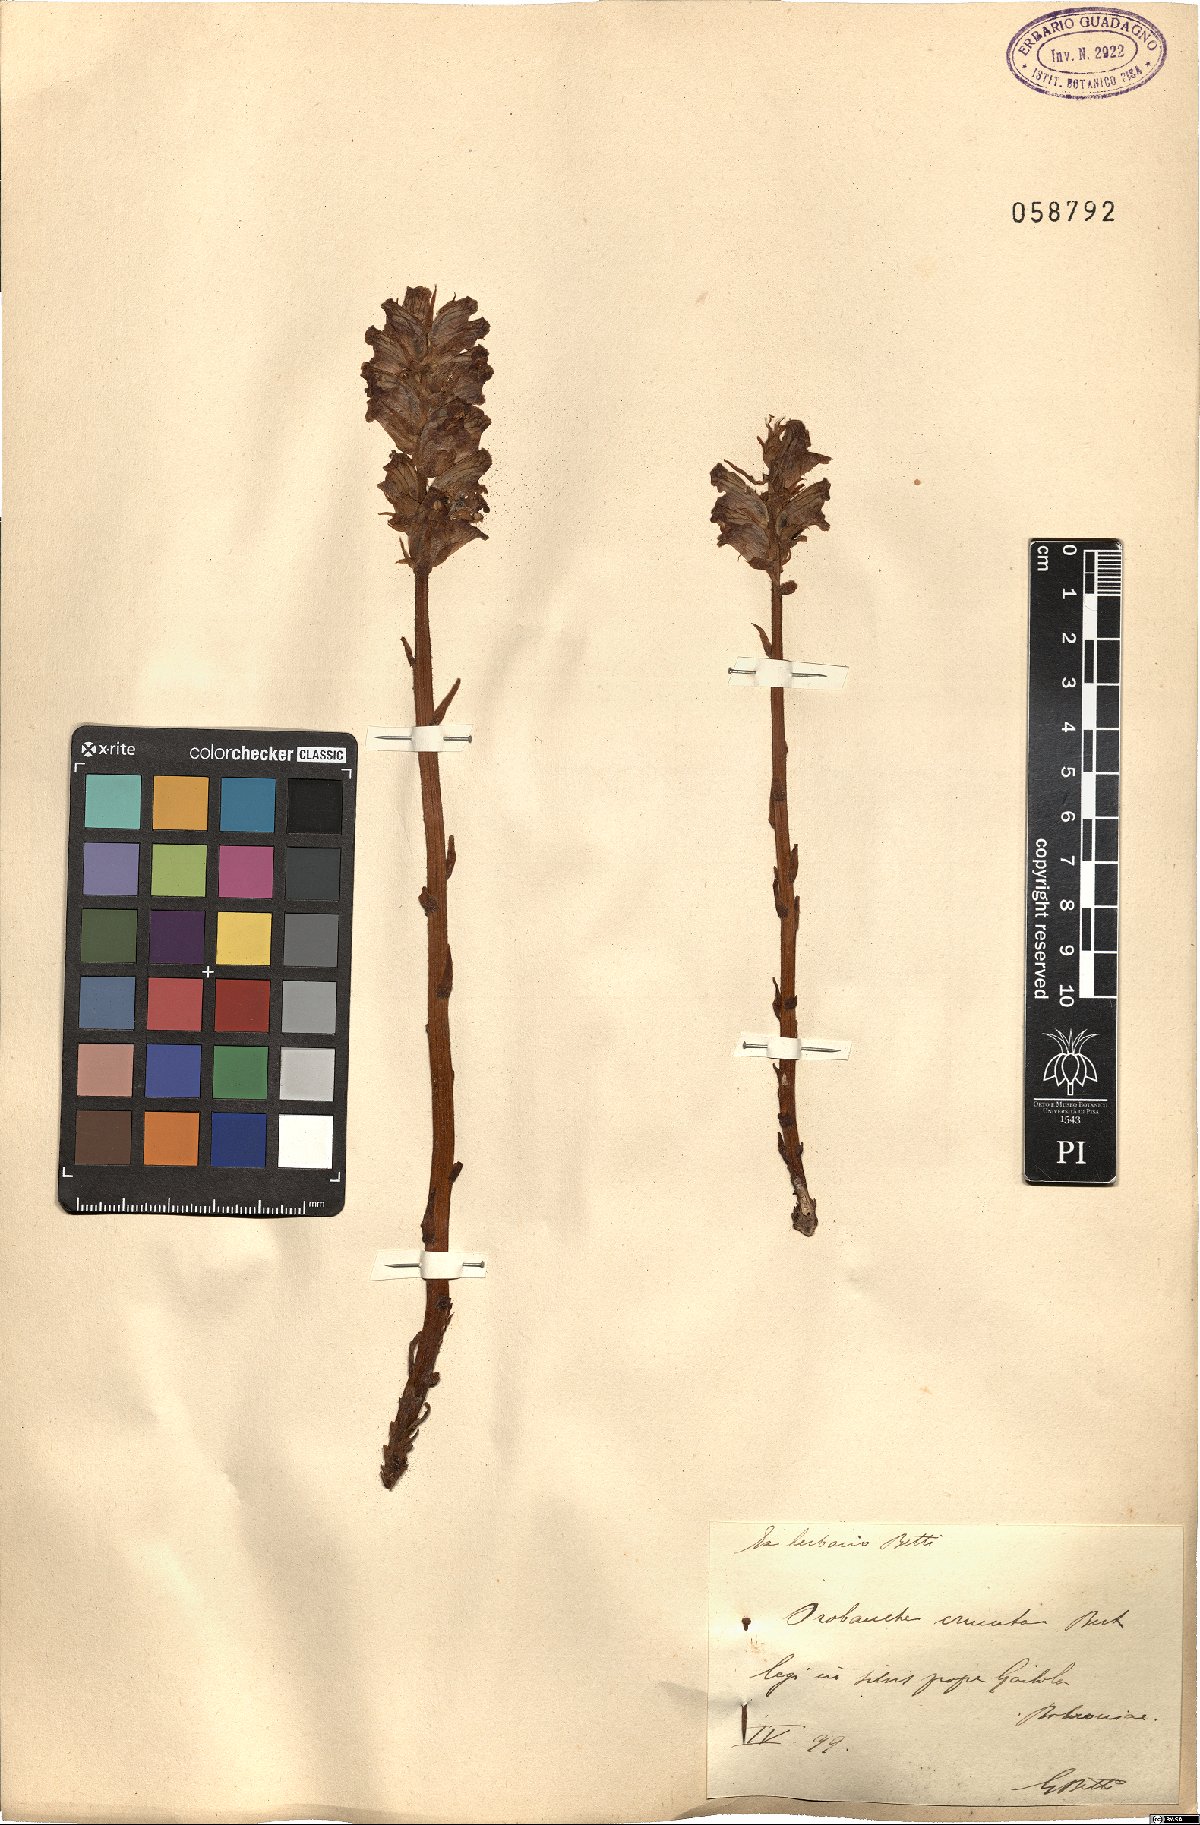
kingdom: Plantae
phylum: Tracheophyta
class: Magnoliopsida
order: Lamiales
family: Orobanchaceae
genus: Orobanche
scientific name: Orobanche crenata
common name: Bean broomrape
